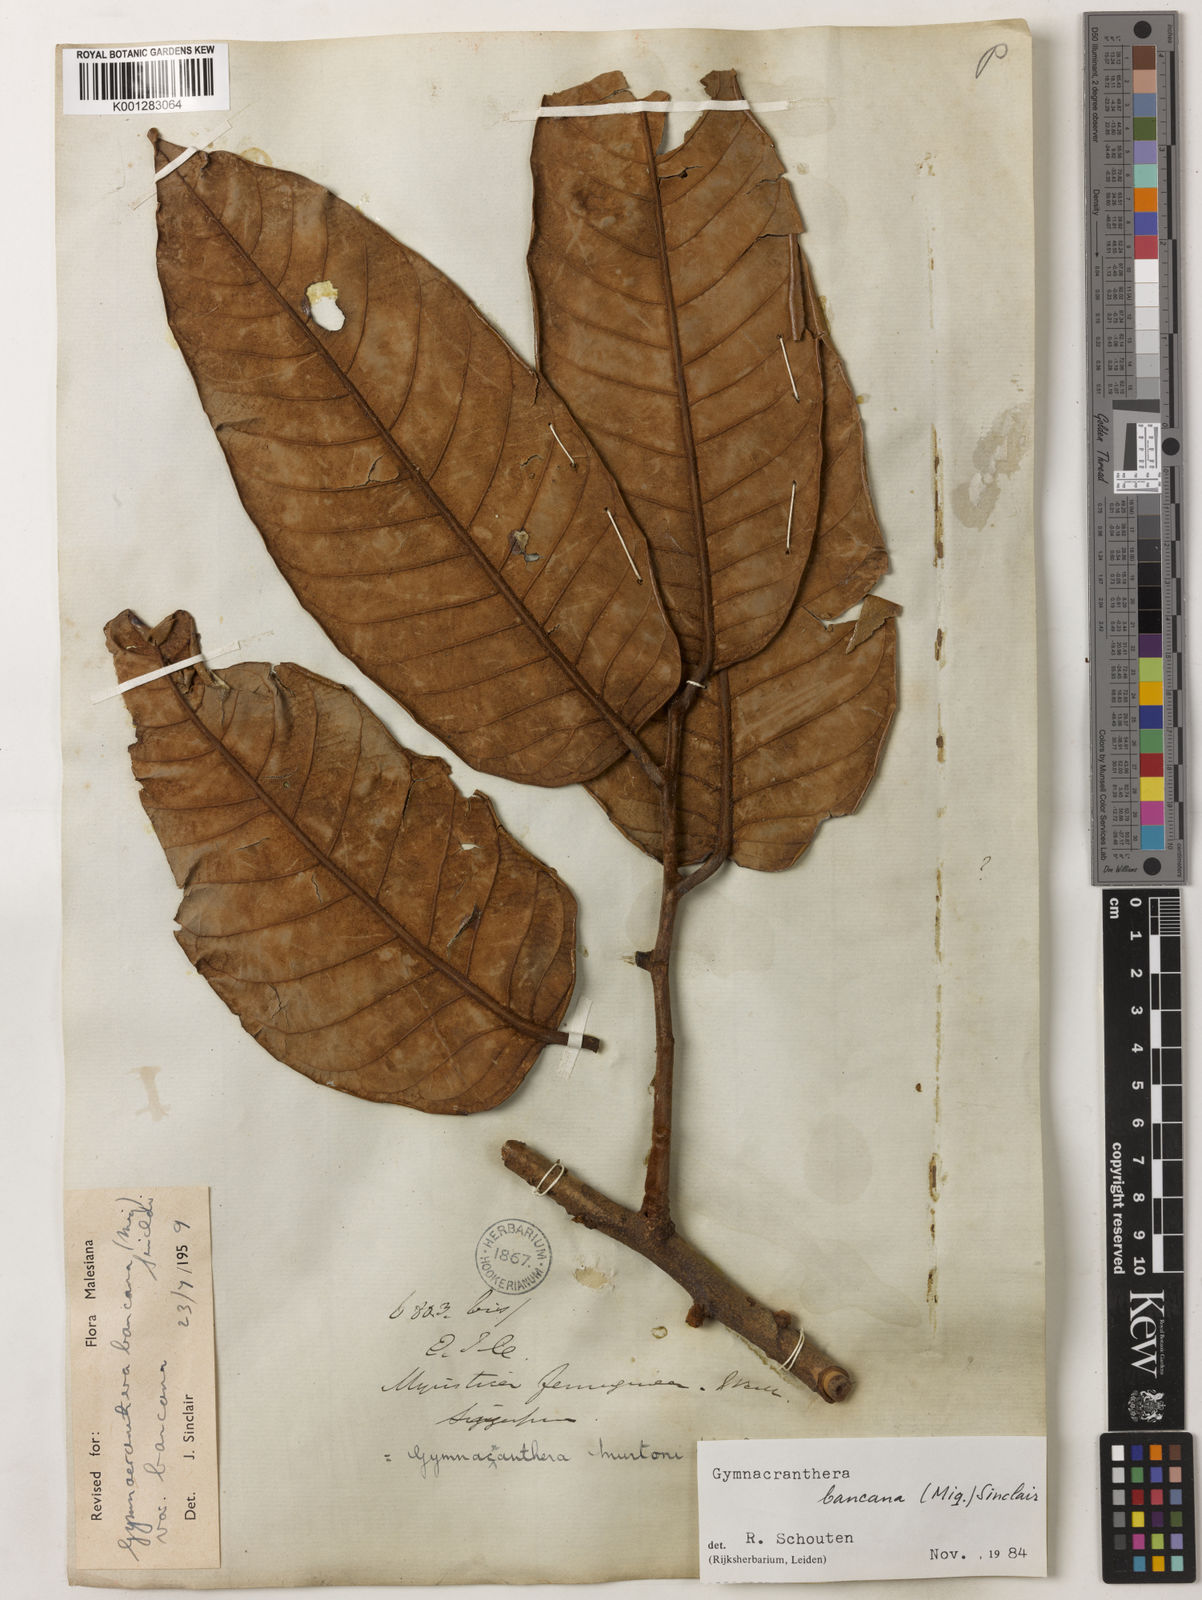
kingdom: Plantae
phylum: Tracheophyta
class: Magnoliopsida
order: Magnoliales
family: Myristicaceae
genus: Gymnacranthera
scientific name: Gymnacranthera bancana
